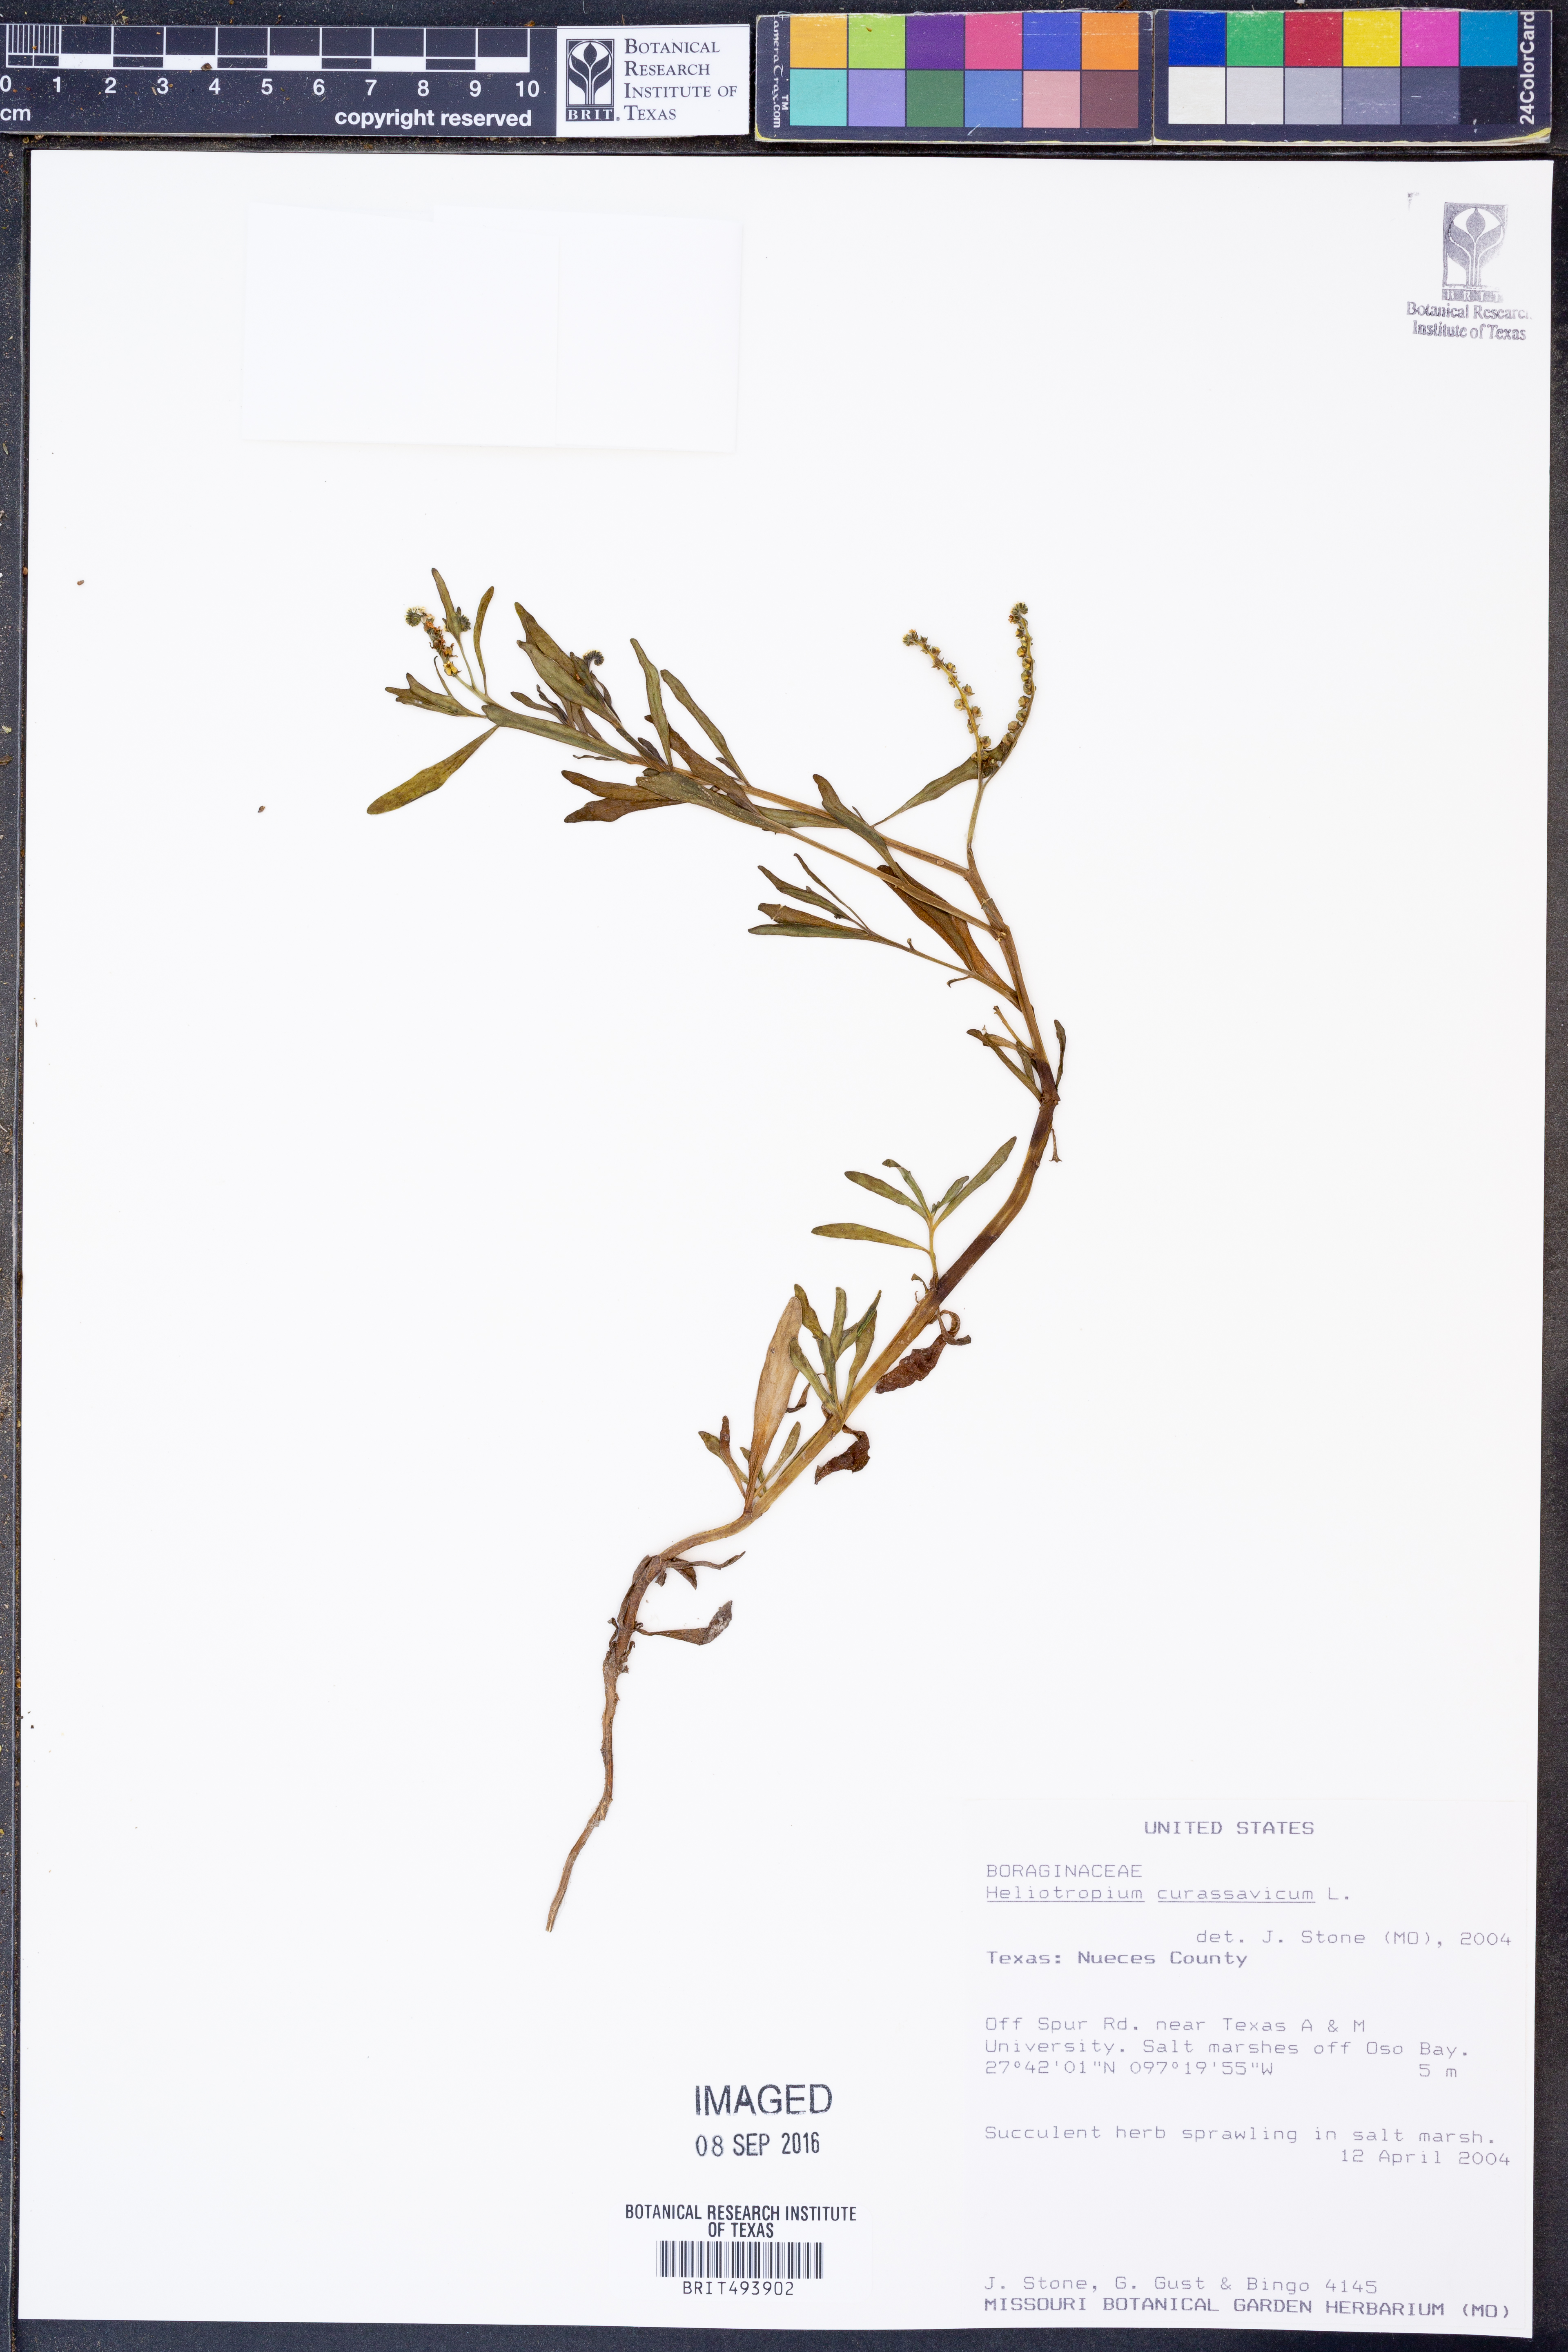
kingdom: Plantae
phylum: Tracheophyta
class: Magnoliopsida
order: Boraginales
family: Heliotropiaceae
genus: Heliotropium
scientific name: Heliotropium curassavicum
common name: Seaside heliotrope
